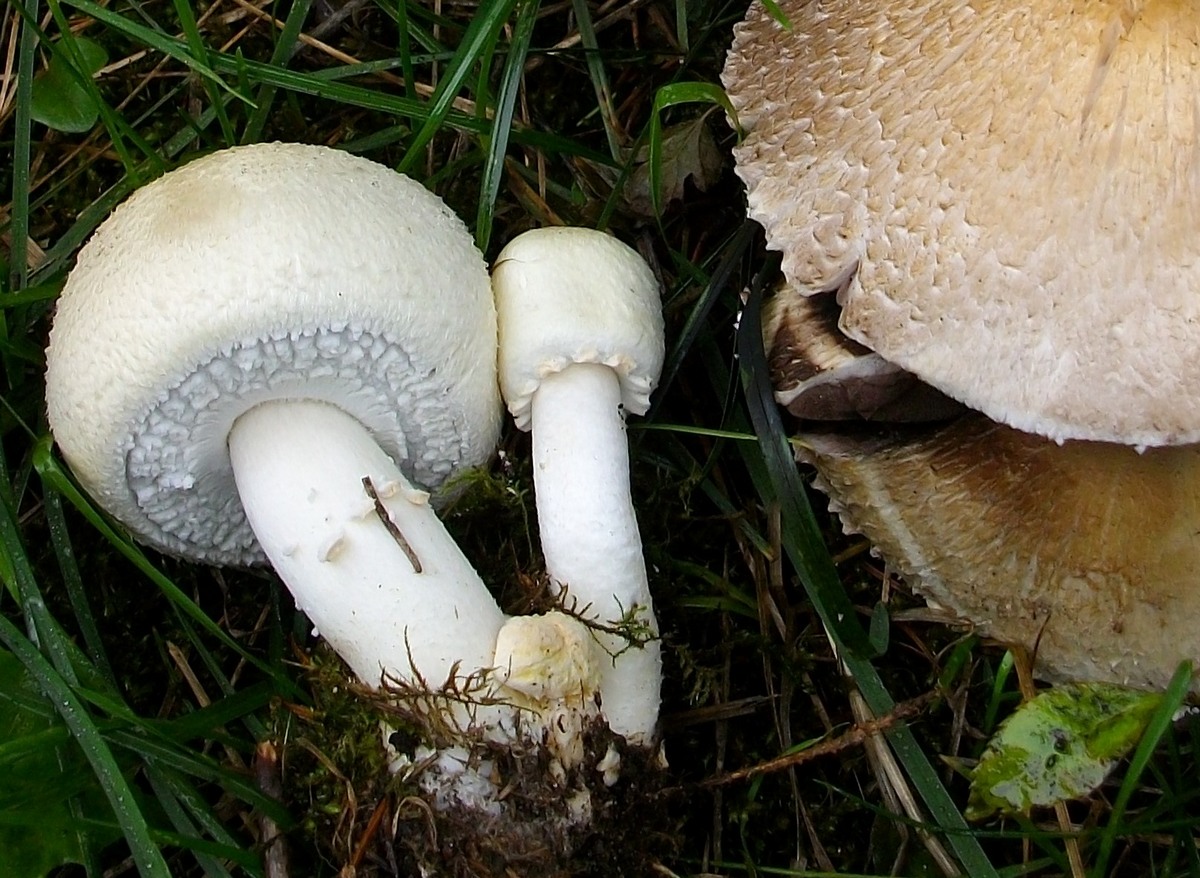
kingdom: Fungi
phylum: Basidiomycota
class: Agaricomycetes
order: Agaricales
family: Agaricaceae
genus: Agaricus
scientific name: Agaricus arvensis
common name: ager-champignon
